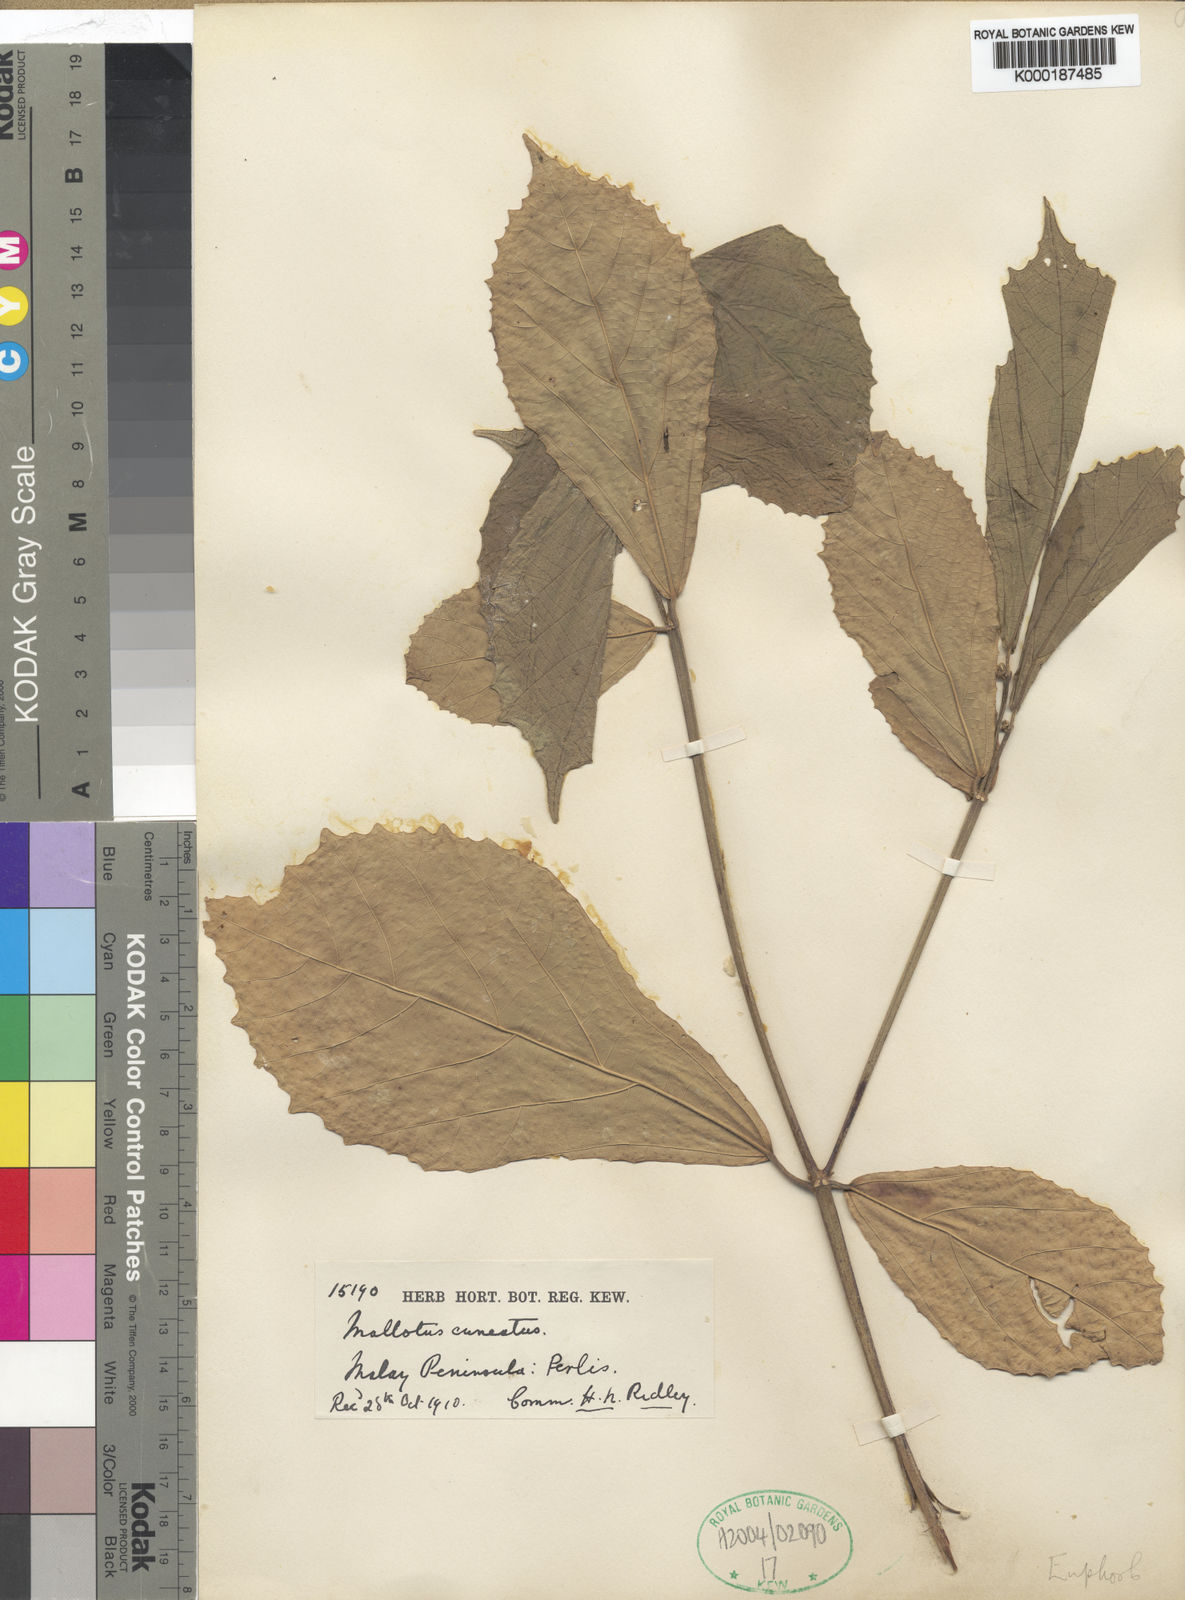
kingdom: Plantae
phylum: Tracheophyta
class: Magnoliopsida
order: Malpighiales
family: Euphorbiaceae
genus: Mallotus
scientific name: Mallotus
